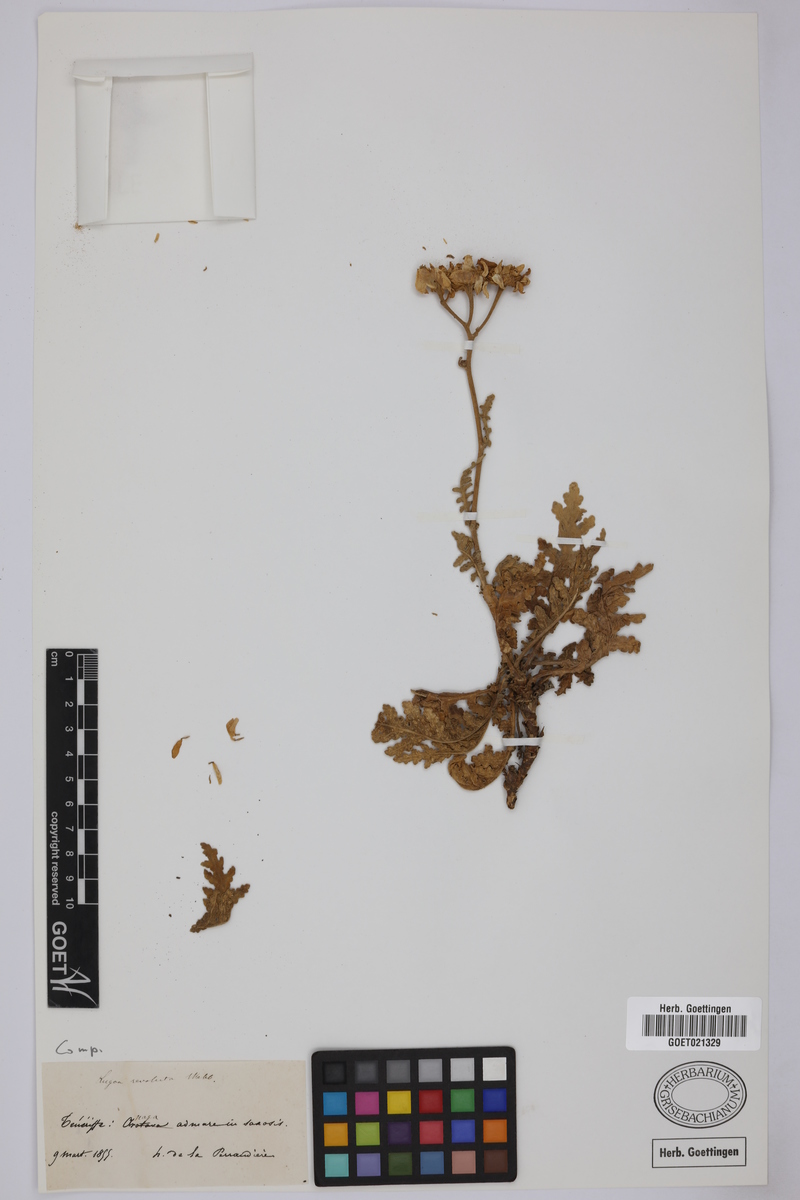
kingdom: Plantae
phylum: Tracheophyta
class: Magnoliopsida
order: Asterales
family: Asteraceae
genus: Gonospermum
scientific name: Gonospermum revolutum
